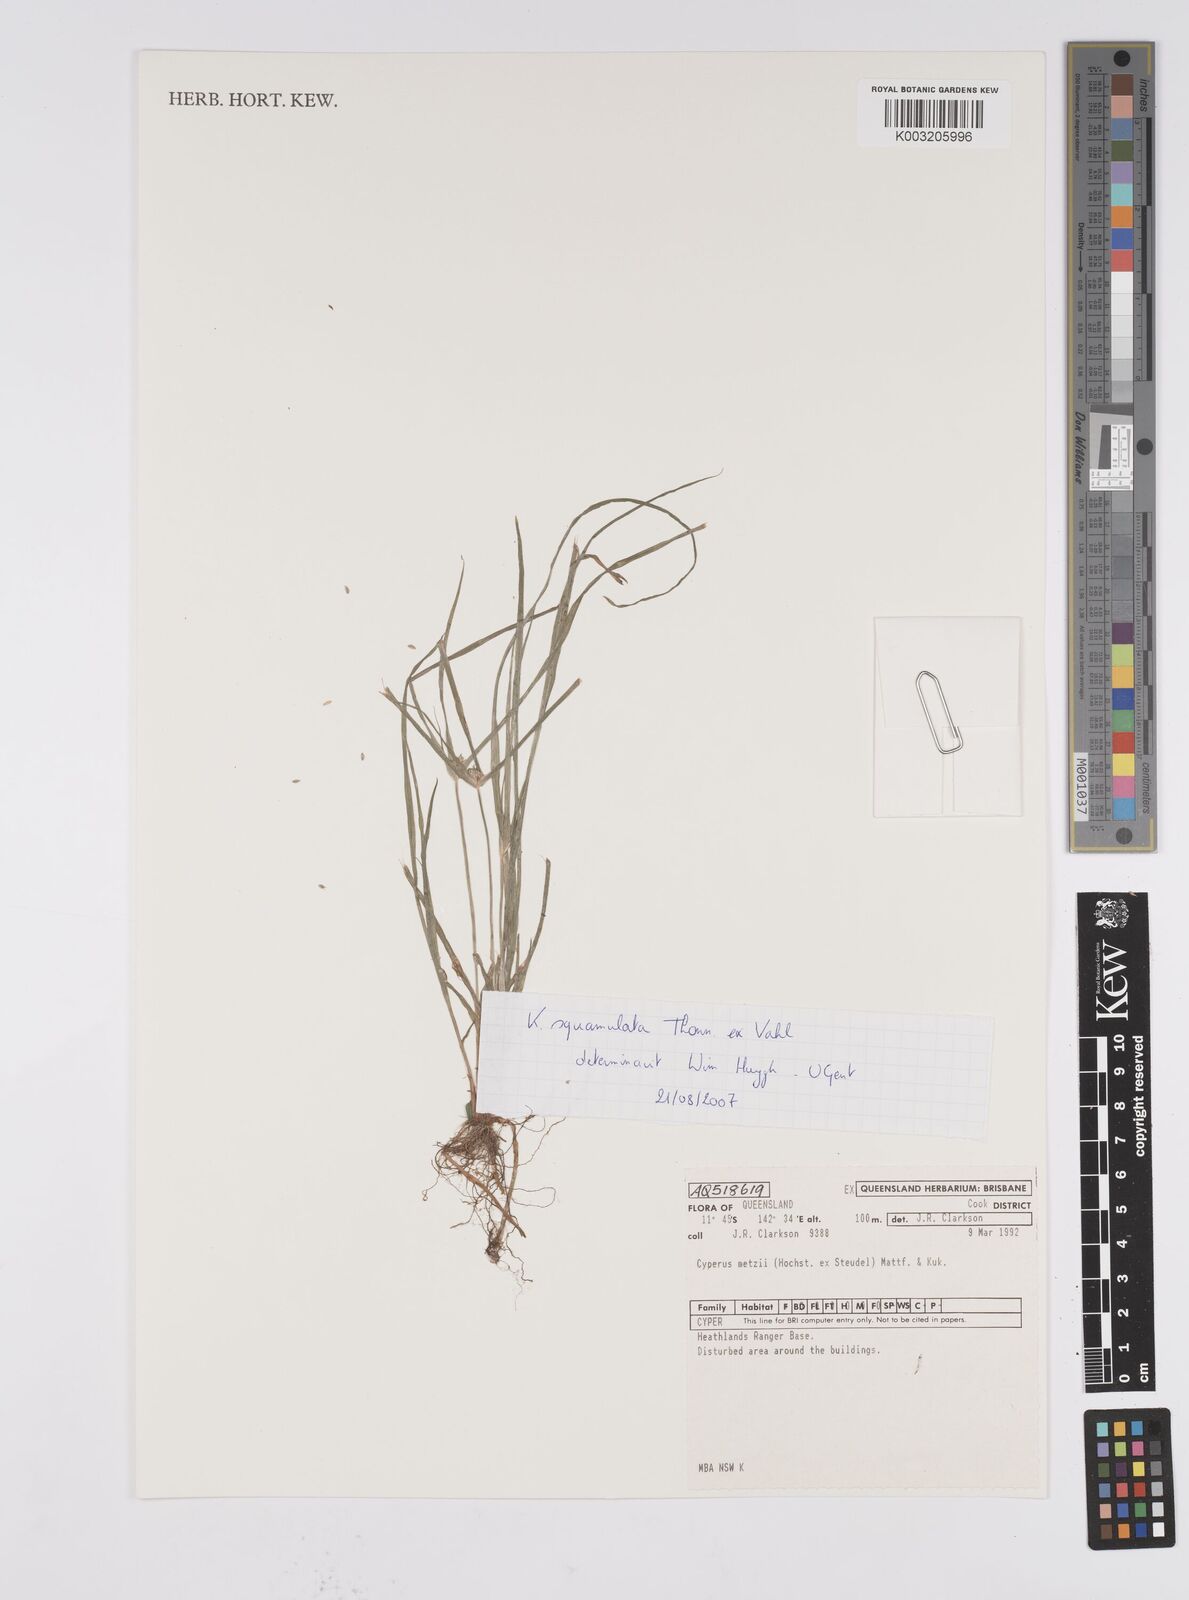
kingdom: Plantae
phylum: Tracheophyta
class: Liliopsida
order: Poales
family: Cyperaceae
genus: Cyperus
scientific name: Cyperus distans
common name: Slender cyperus
